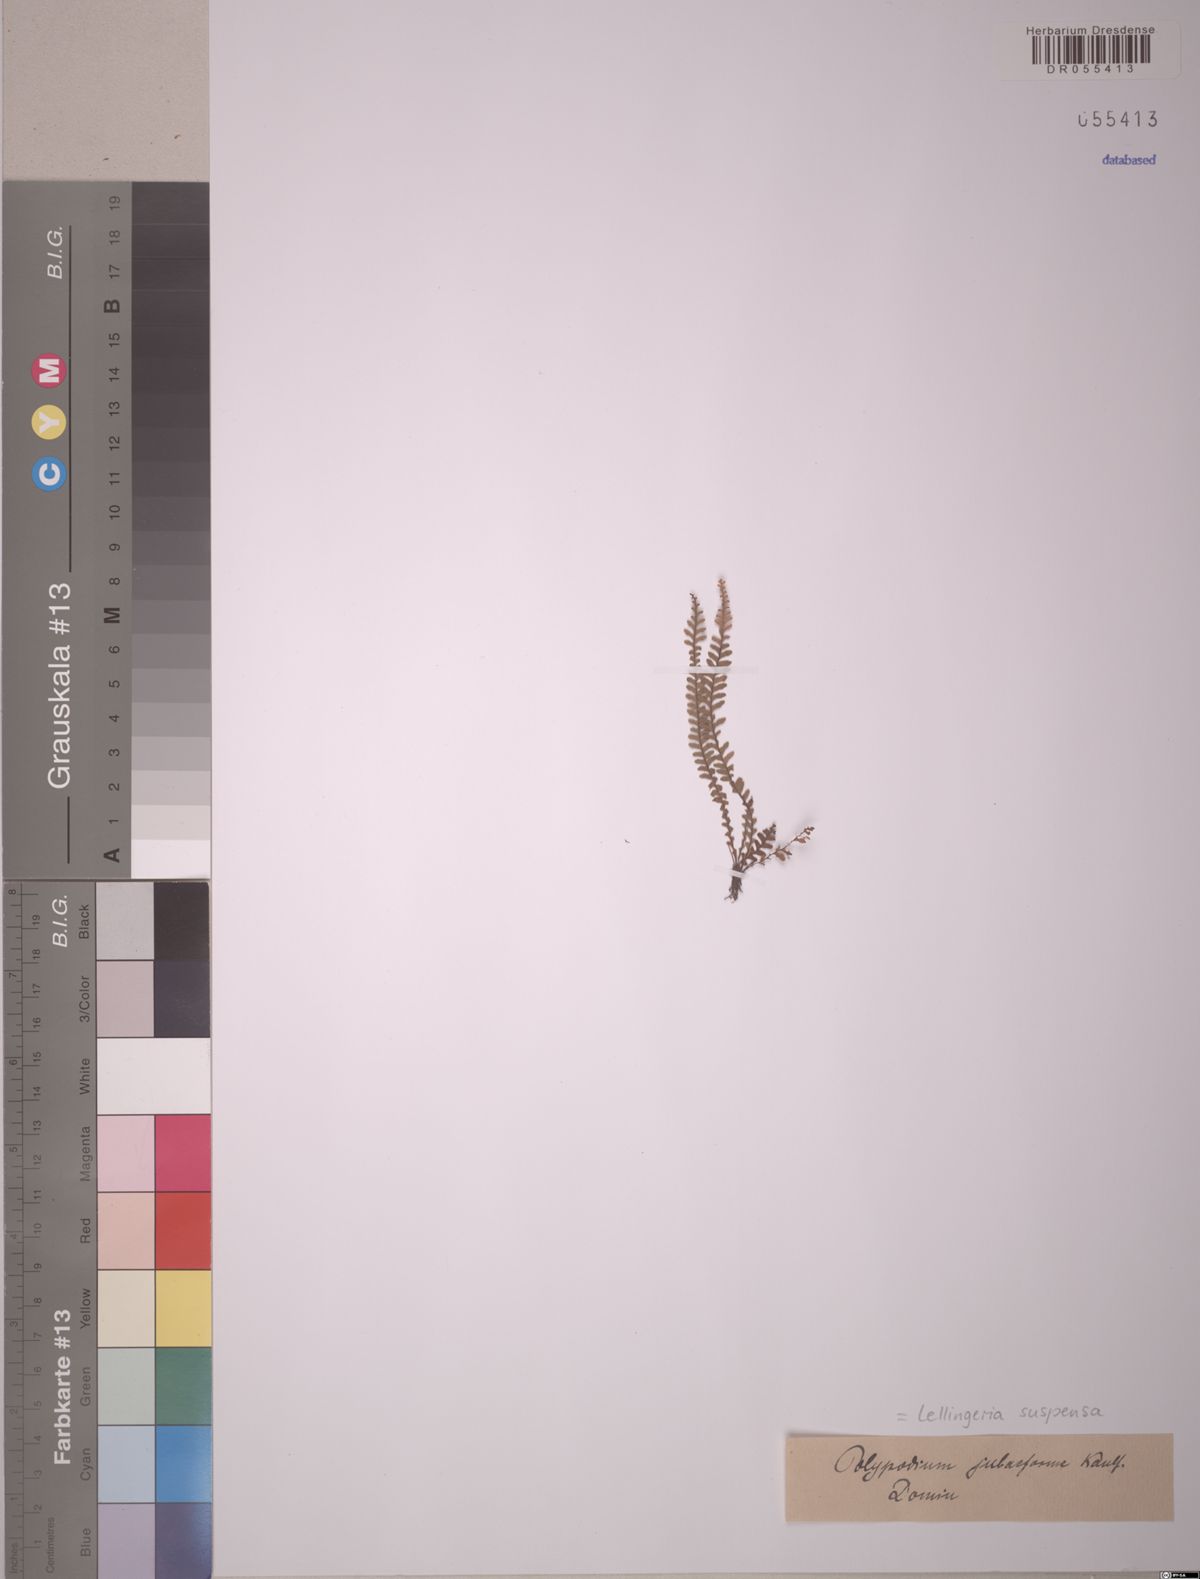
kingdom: Plantae
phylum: Tracheophyta
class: Polypodiopsida
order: Polypodiales
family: Polypodiaceae
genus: Lellingeria
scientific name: Lellingeria suspensa
